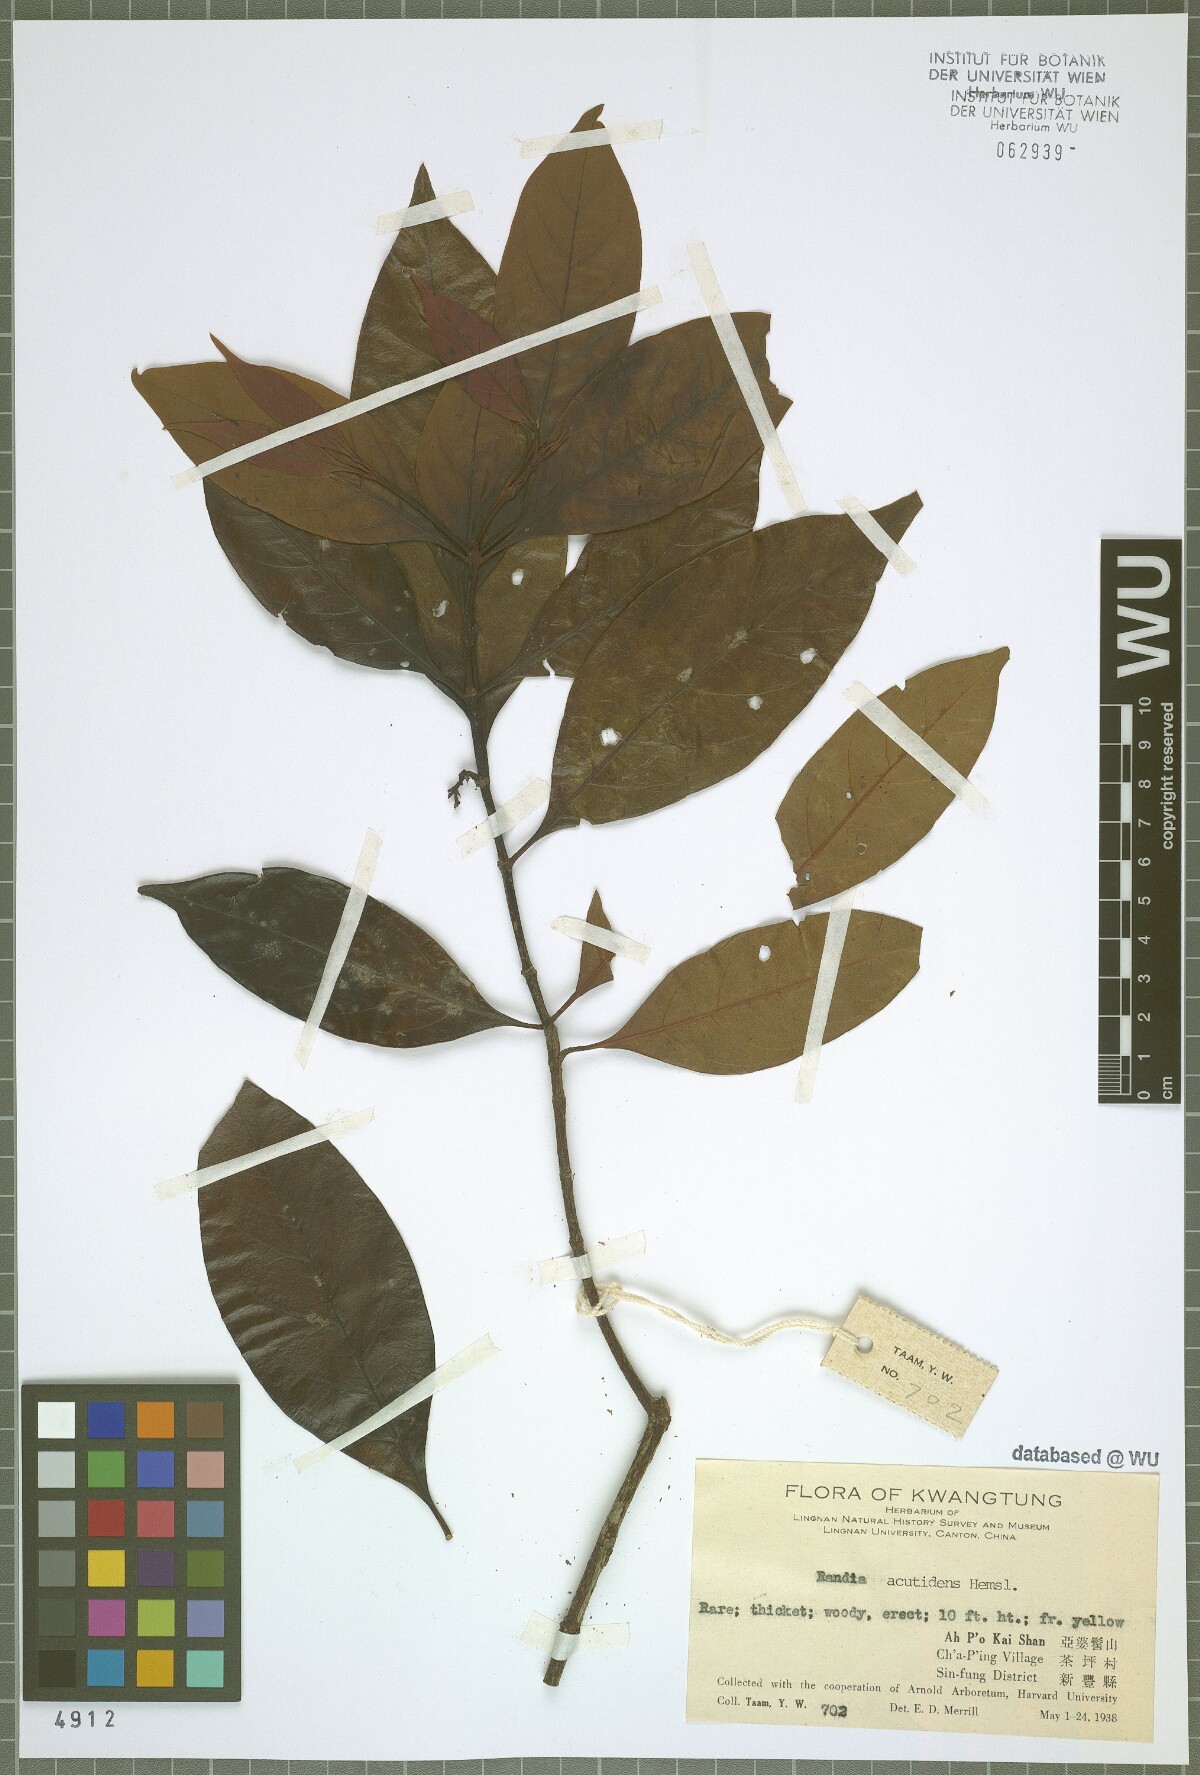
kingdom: Plantae
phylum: Tracheophyta
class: Magnoliopsida
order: Gentianales
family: Rubiaceae
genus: Aidia
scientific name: Aidia henryi
